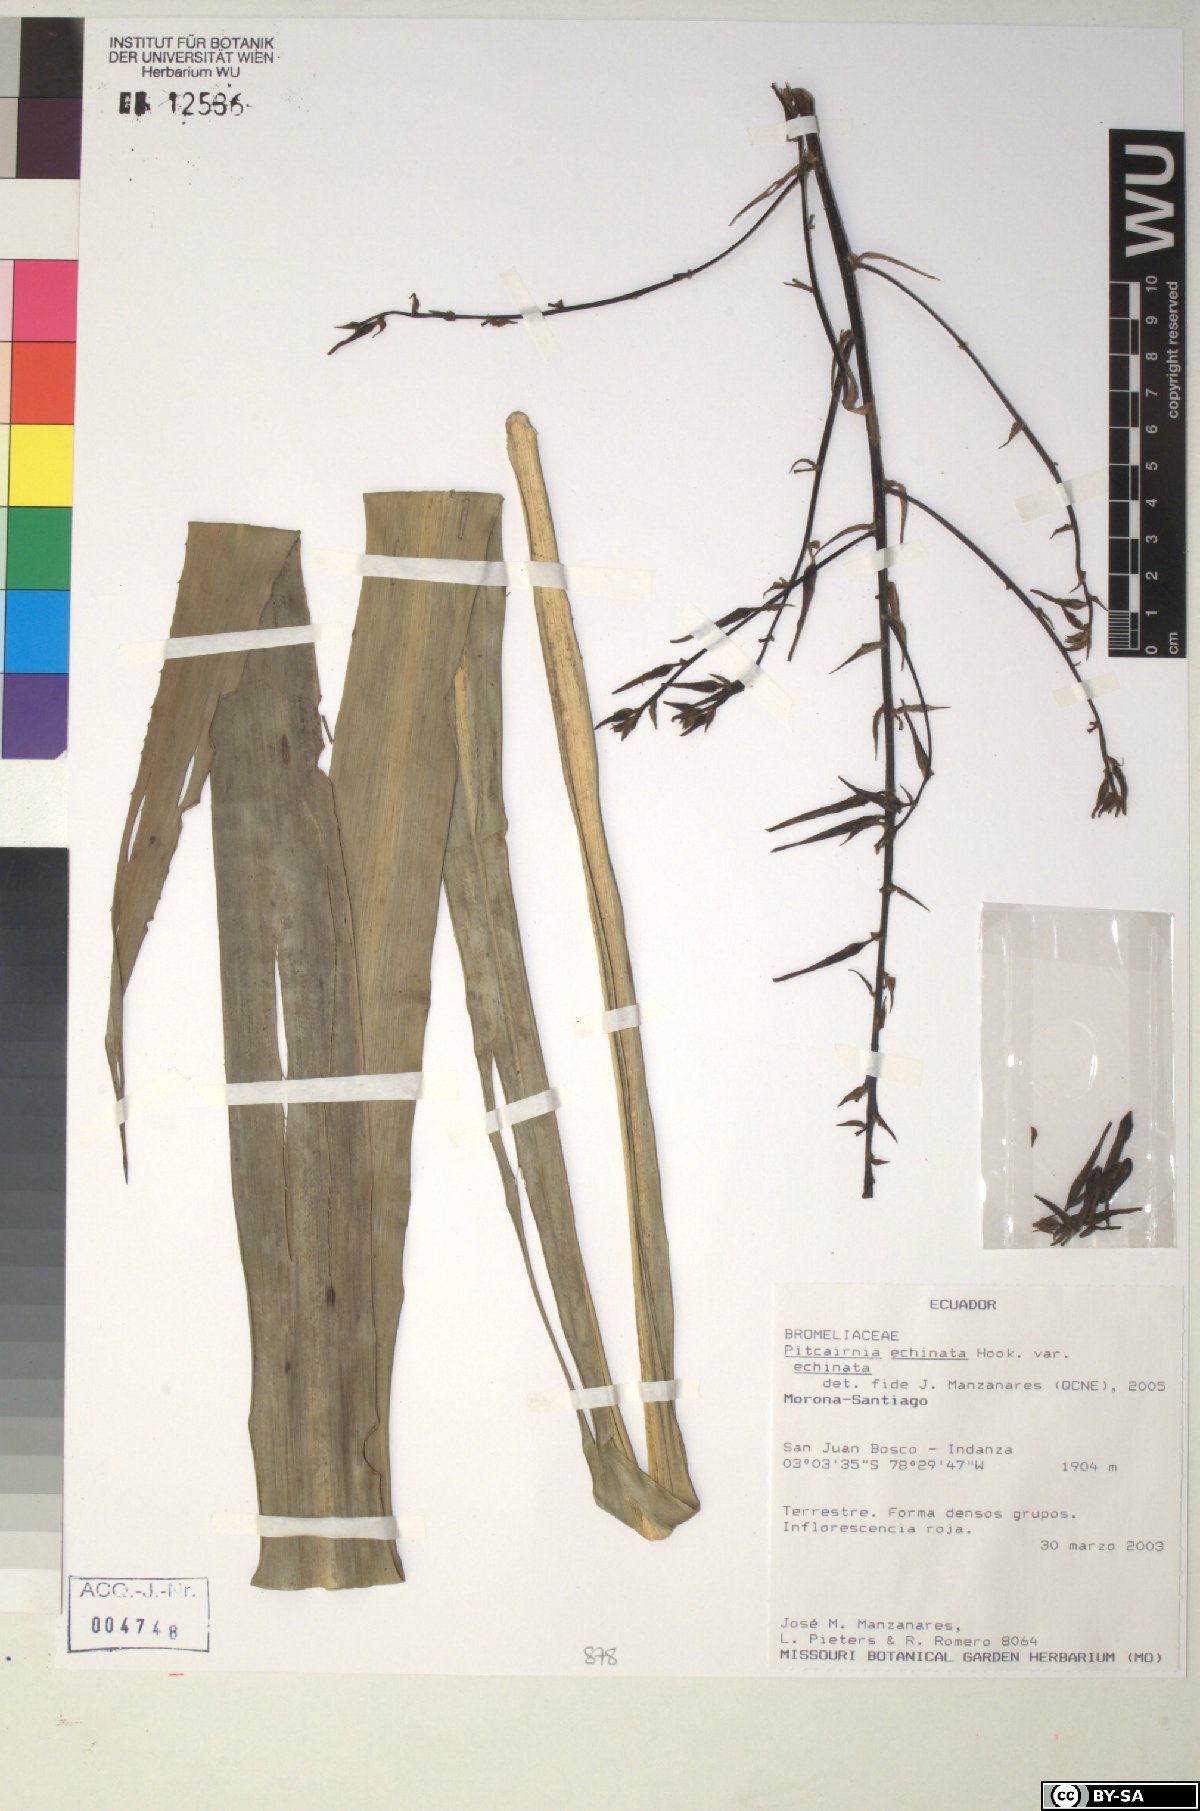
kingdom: Plantae
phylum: Tracheophyta
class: Liliopsida
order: Poales
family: Bromeliaceae
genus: Pitcairnia
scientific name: Pitcairnia echinata
